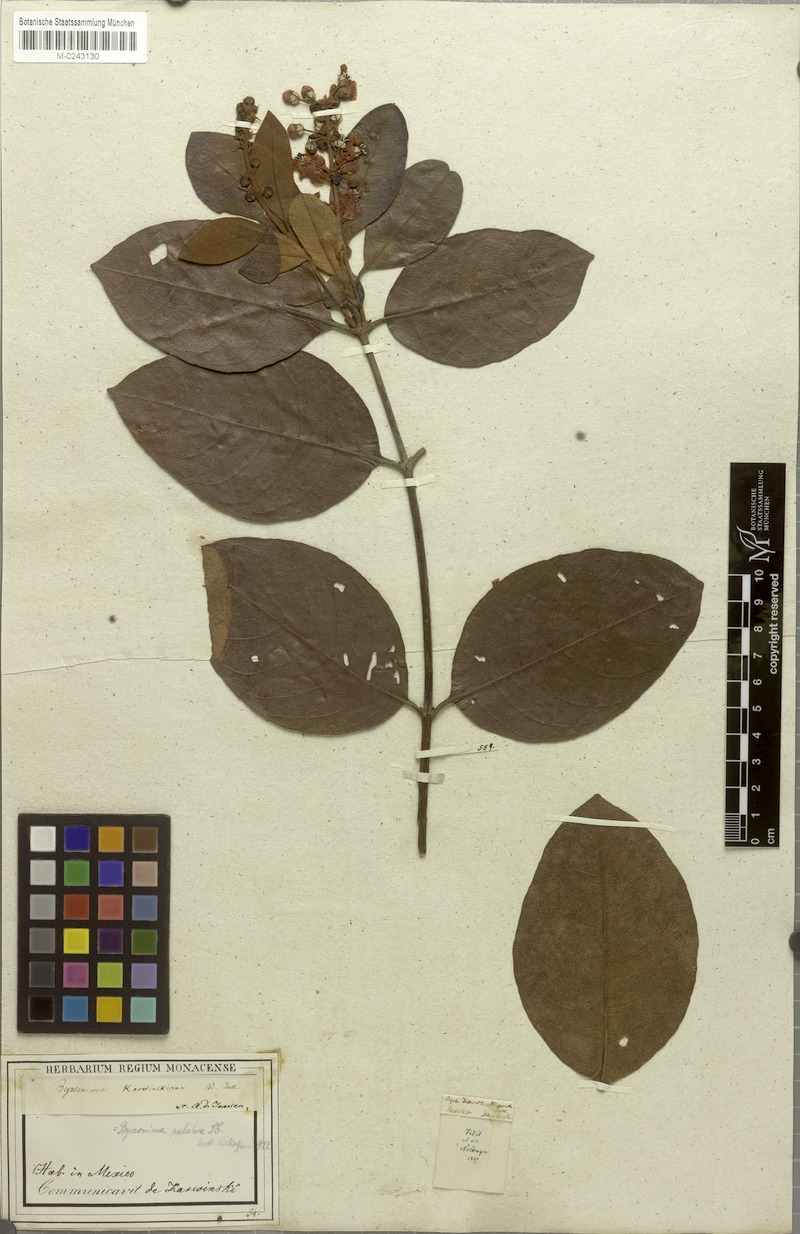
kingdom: Plantae
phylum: Tracheophyta
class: Magnoliopsida
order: Malpighiales
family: Malpighiaceae
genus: Byrsonima
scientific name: Byrsonima crassifolia
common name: Golden spoon
